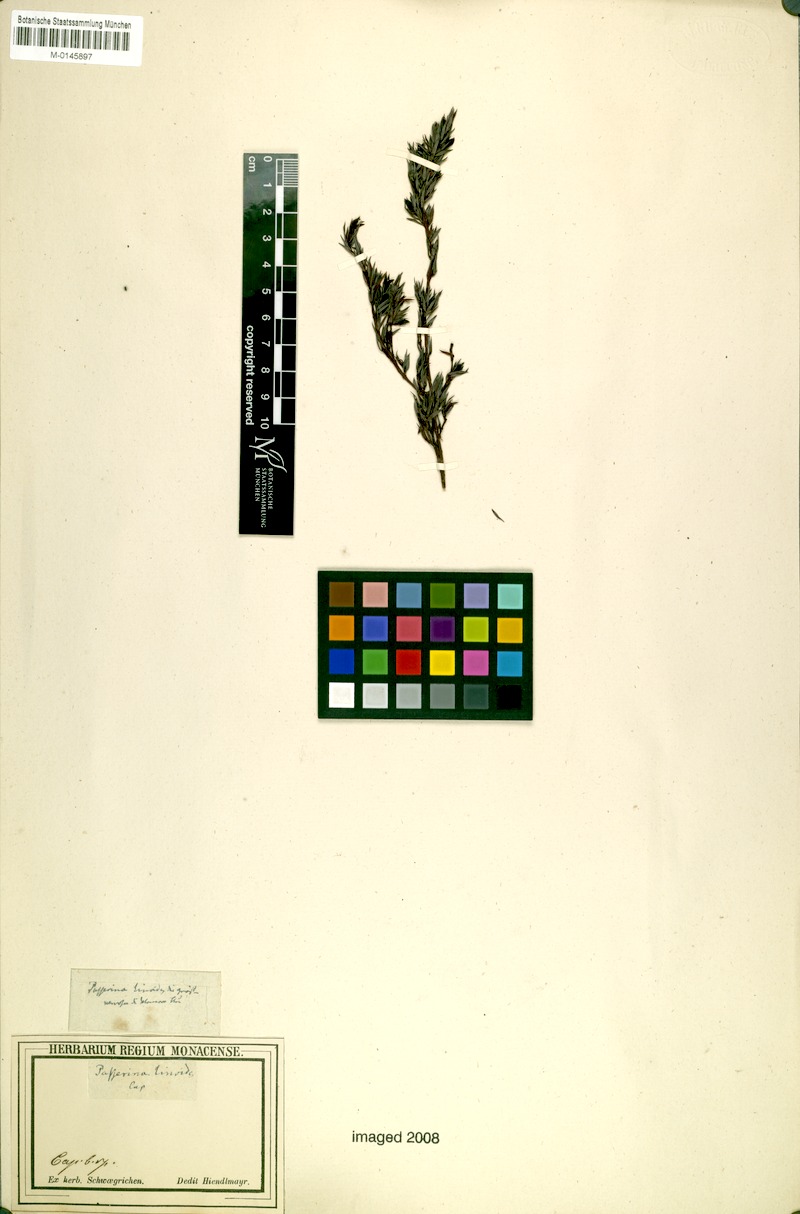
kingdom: Plantae
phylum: Tracheophyta
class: Magnoliopsida
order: Malvales
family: Thymelaeaceae
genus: Gnidia
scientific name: Gnidia juniperifolia
